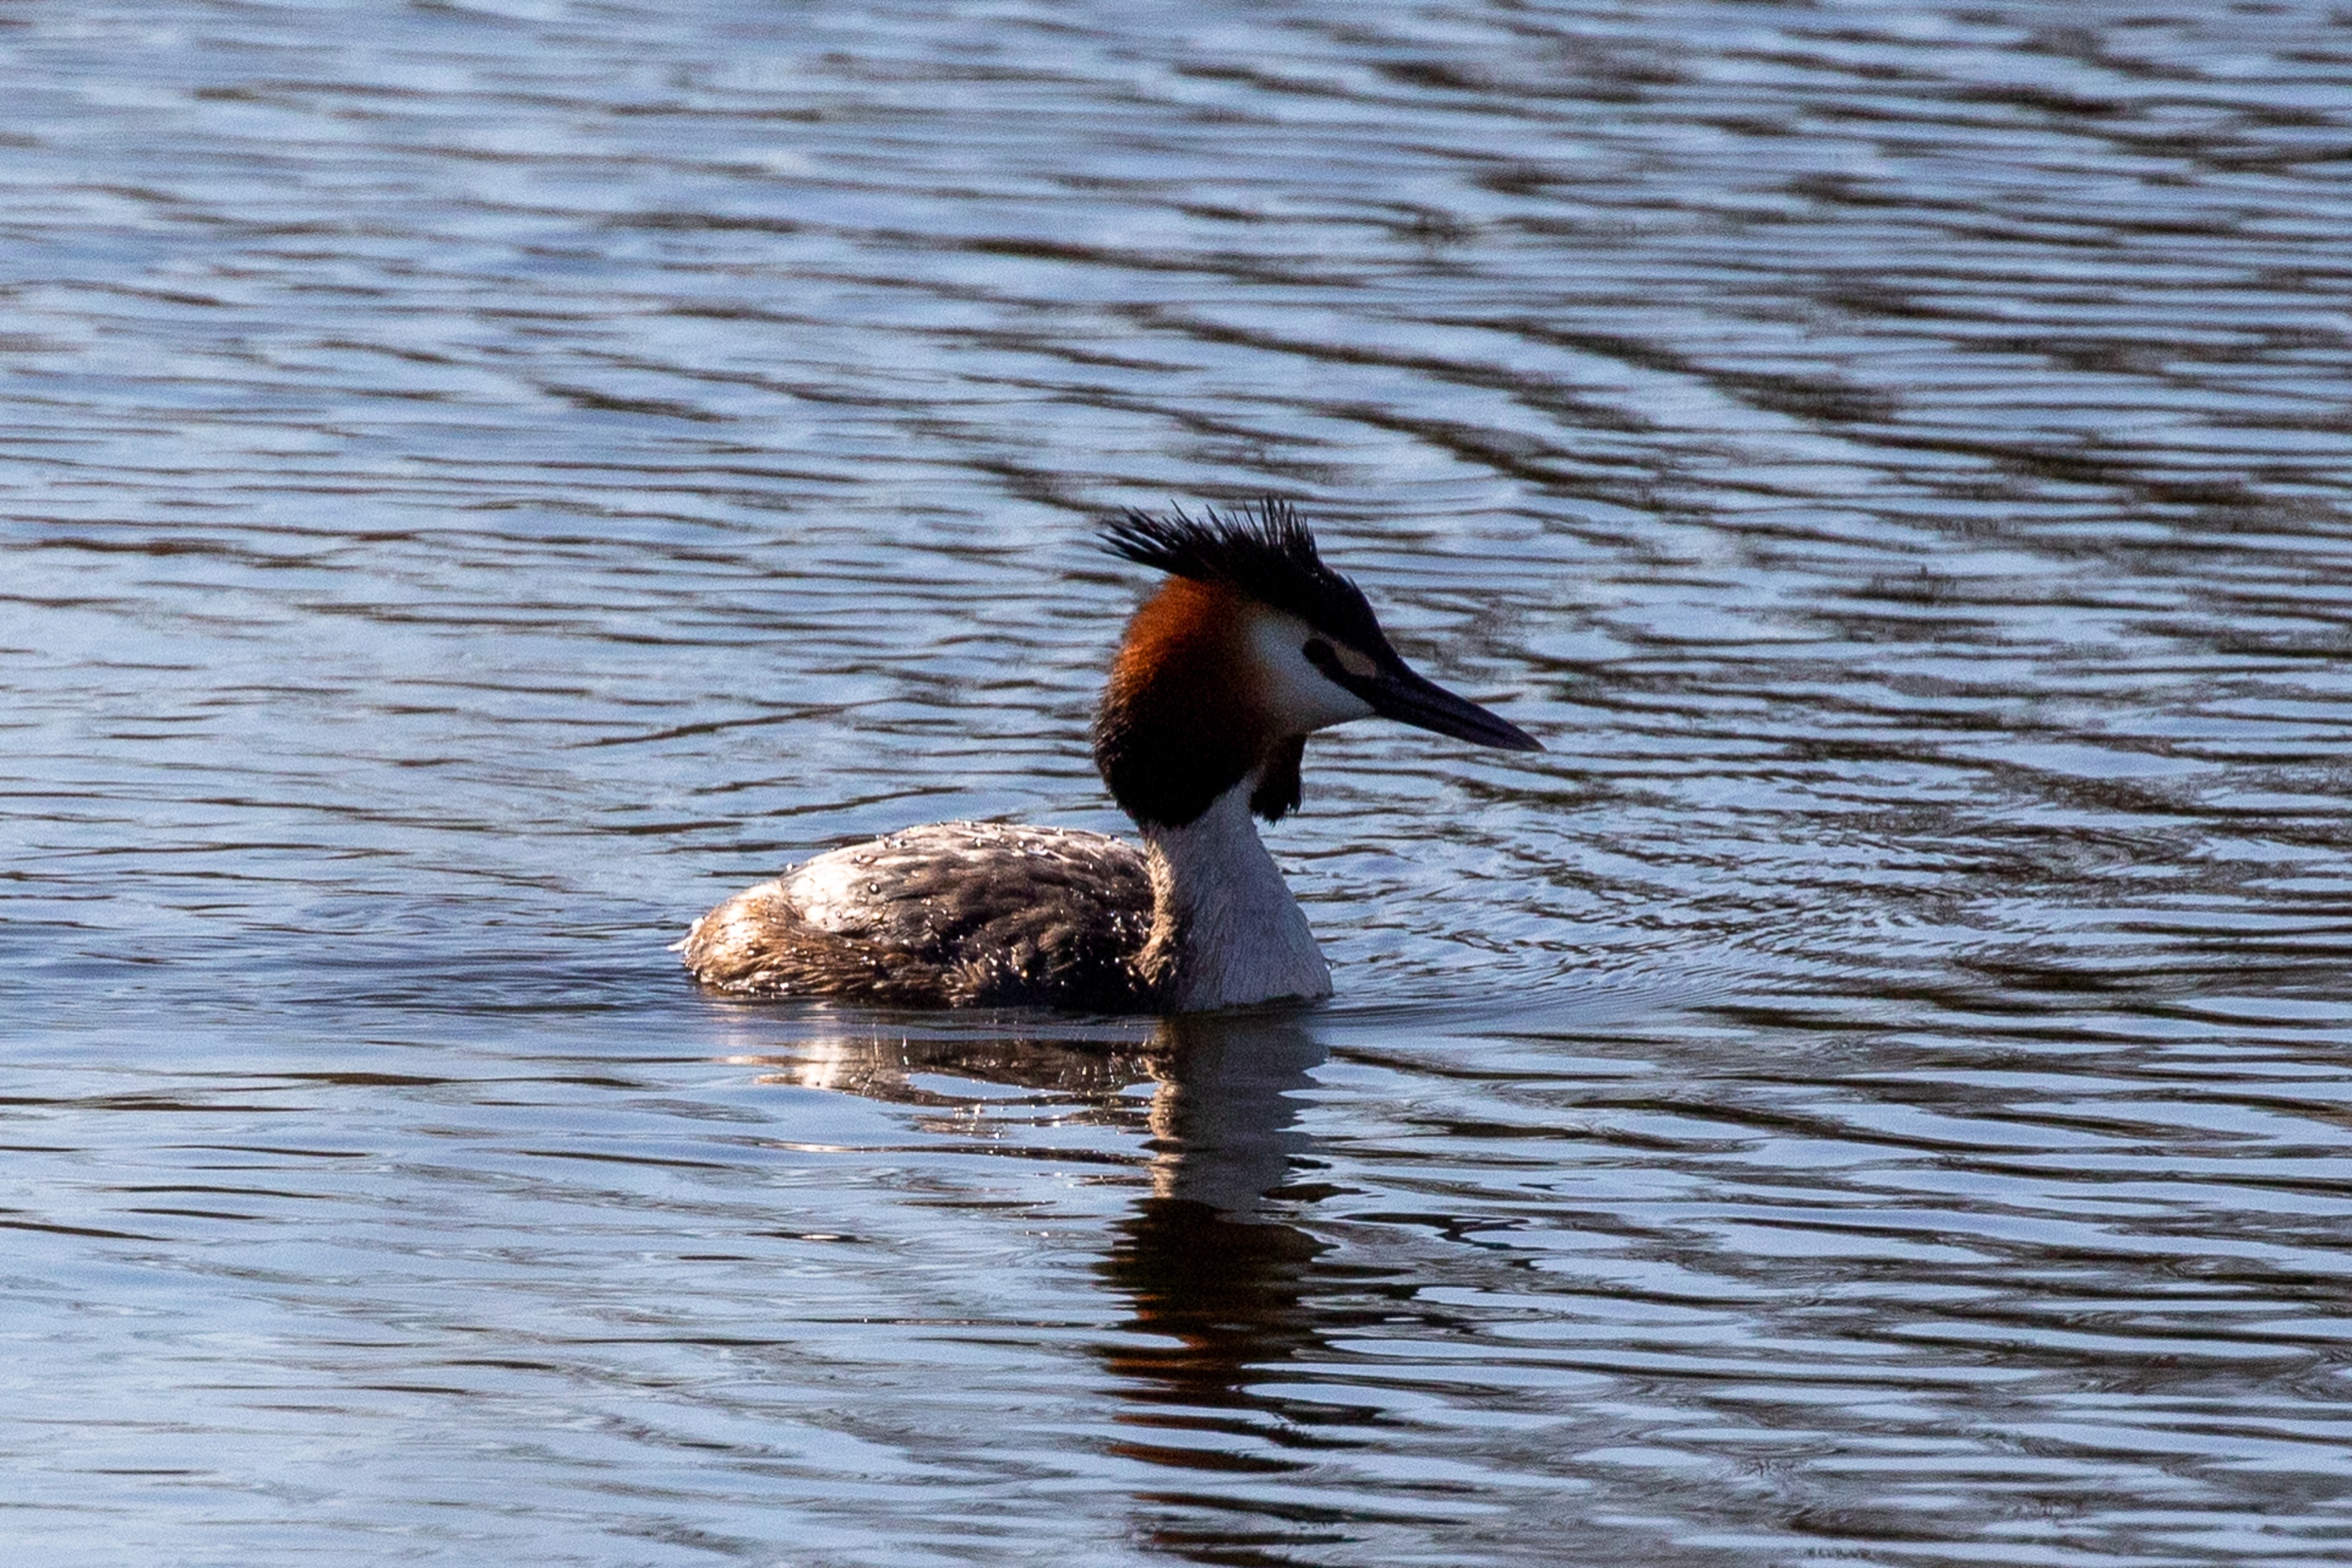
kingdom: Animalia
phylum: Chordata
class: Aves
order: Podicipediformes
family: Podicipedidae
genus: Podiceps
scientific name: Podiceps cristatus
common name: Toppet lappedykker
